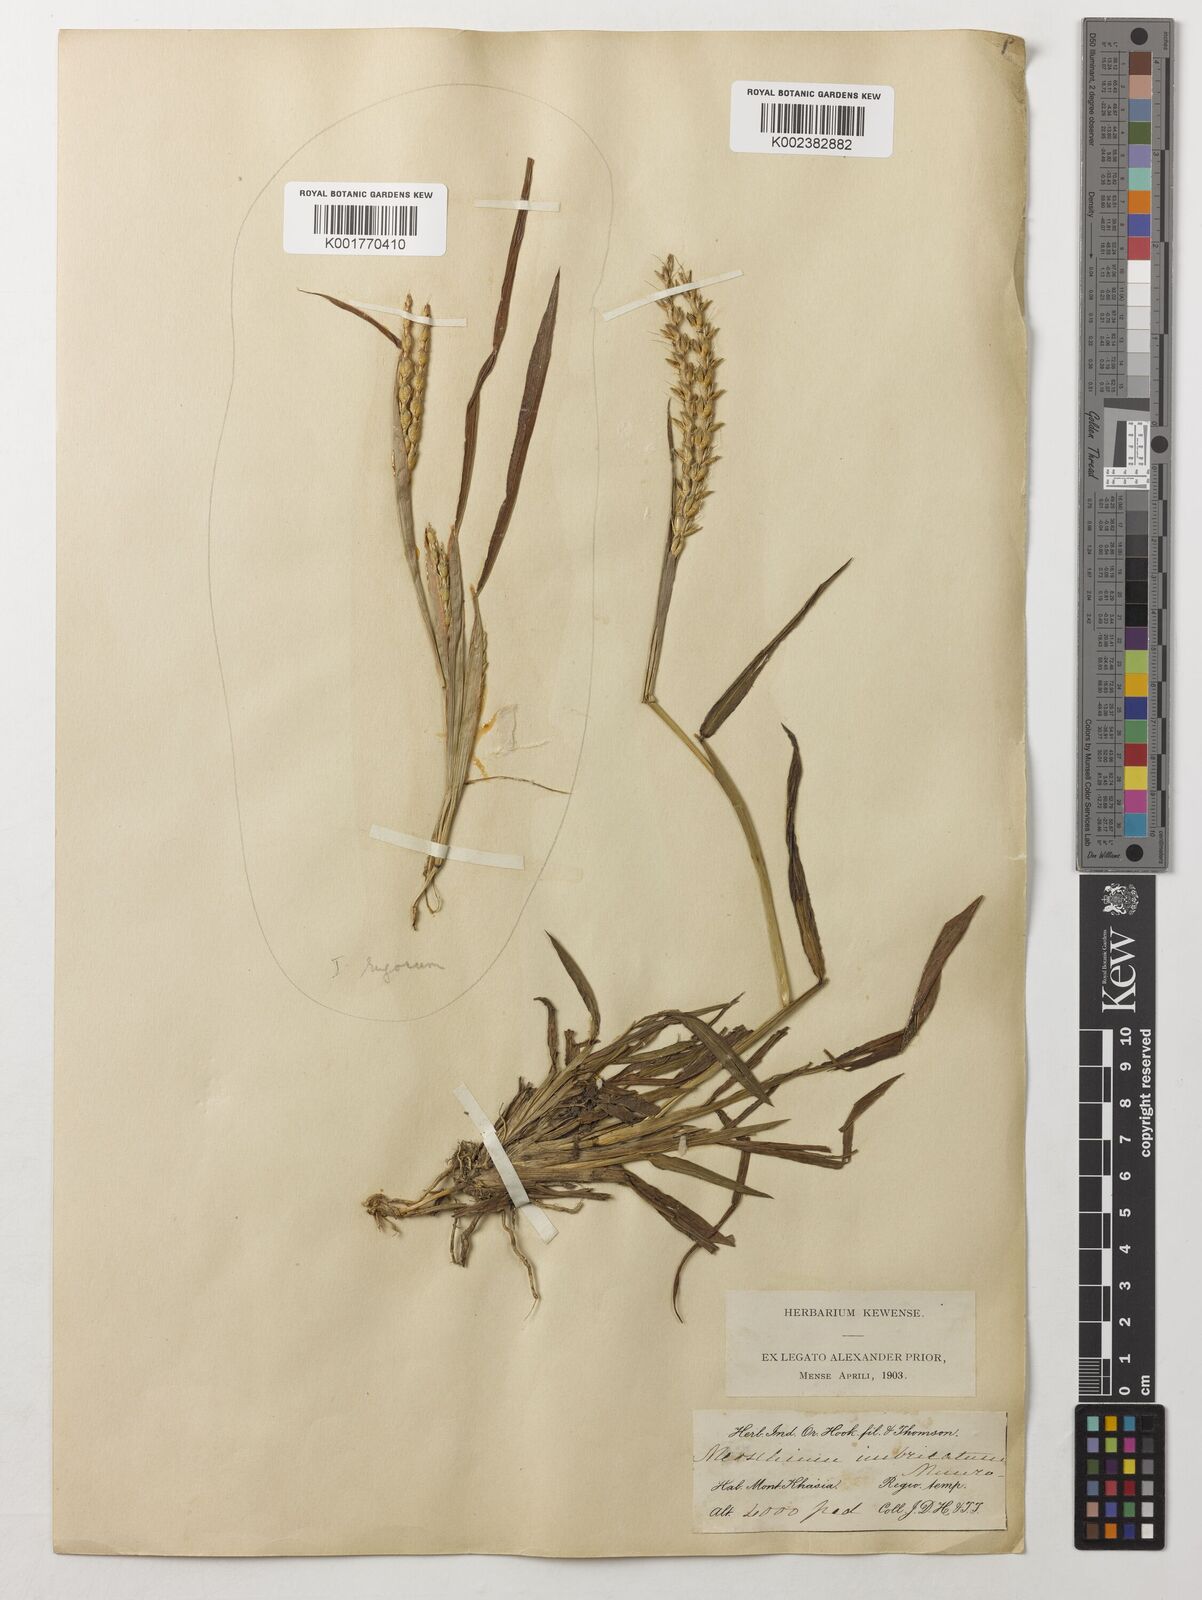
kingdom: Plantae
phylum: Tracheophyta
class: Liliopsida
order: Poales
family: Poaceae
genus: Ischaemum
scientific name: Ischaemum barbatum
